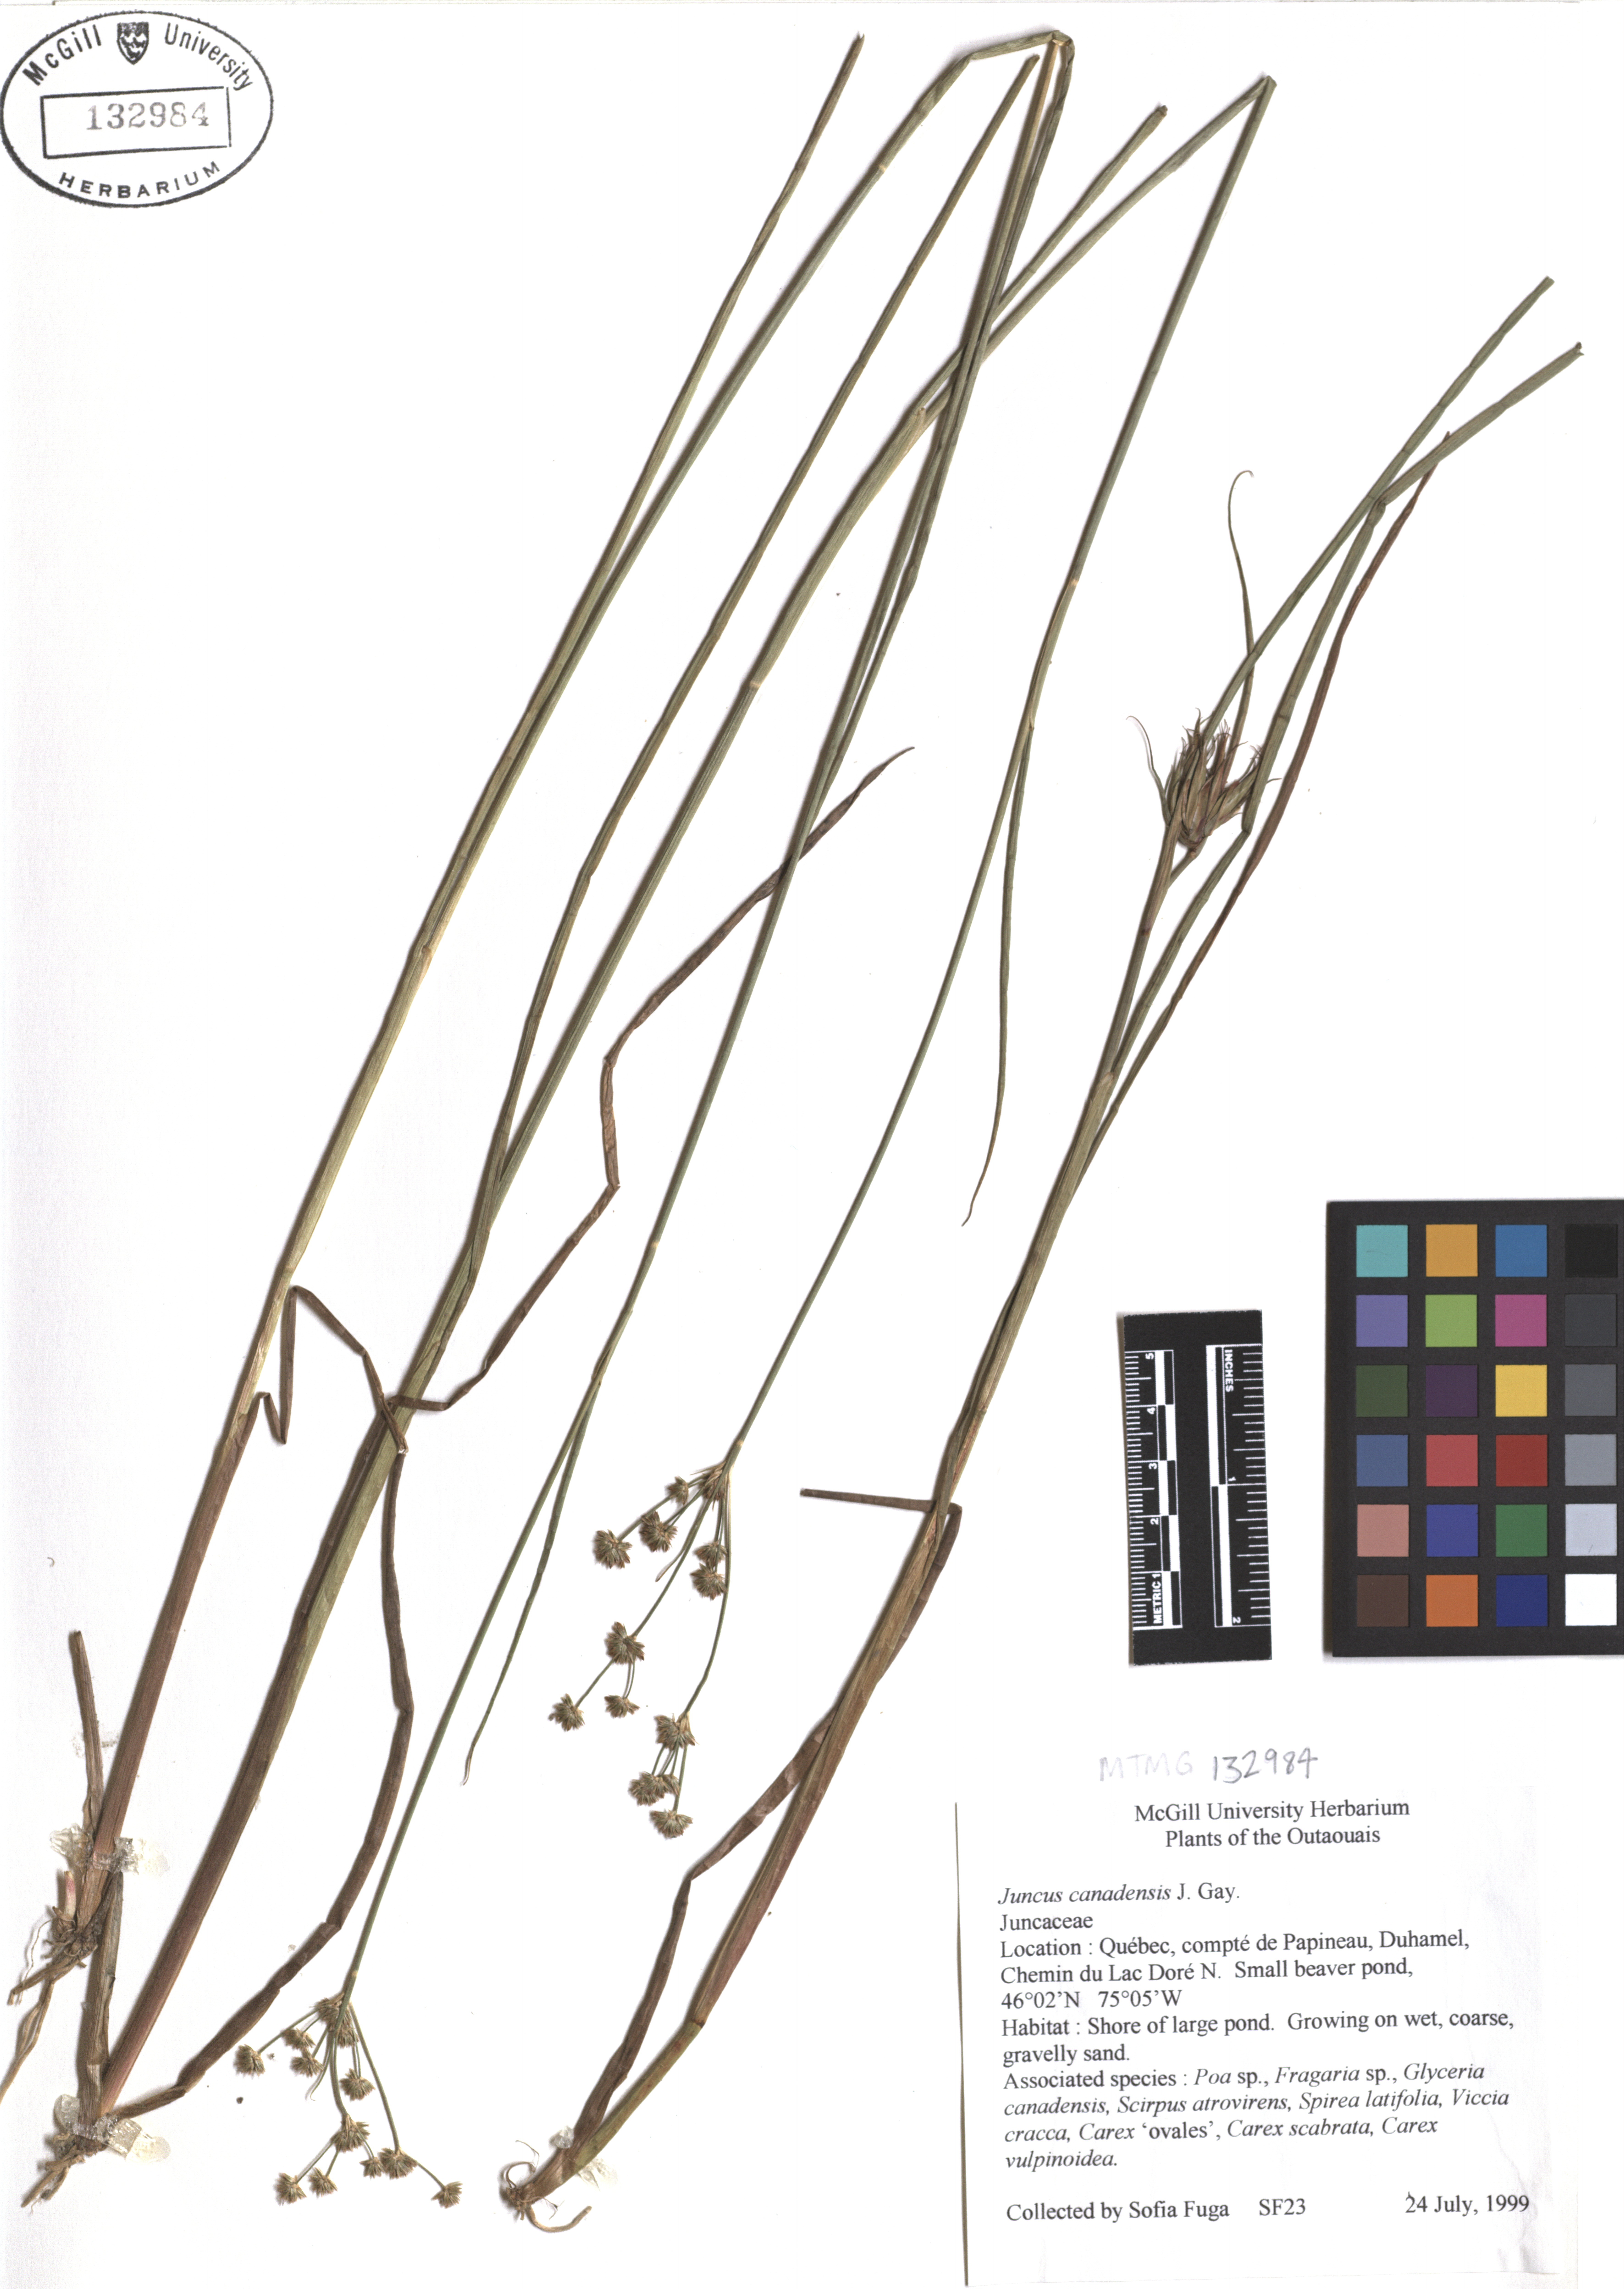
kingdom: Plantae
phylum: Tracheophyta
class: Liliopsida
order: Poales
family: Juncaceae
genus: Juncus
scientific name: Juncus canadensis
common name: Canada rush
